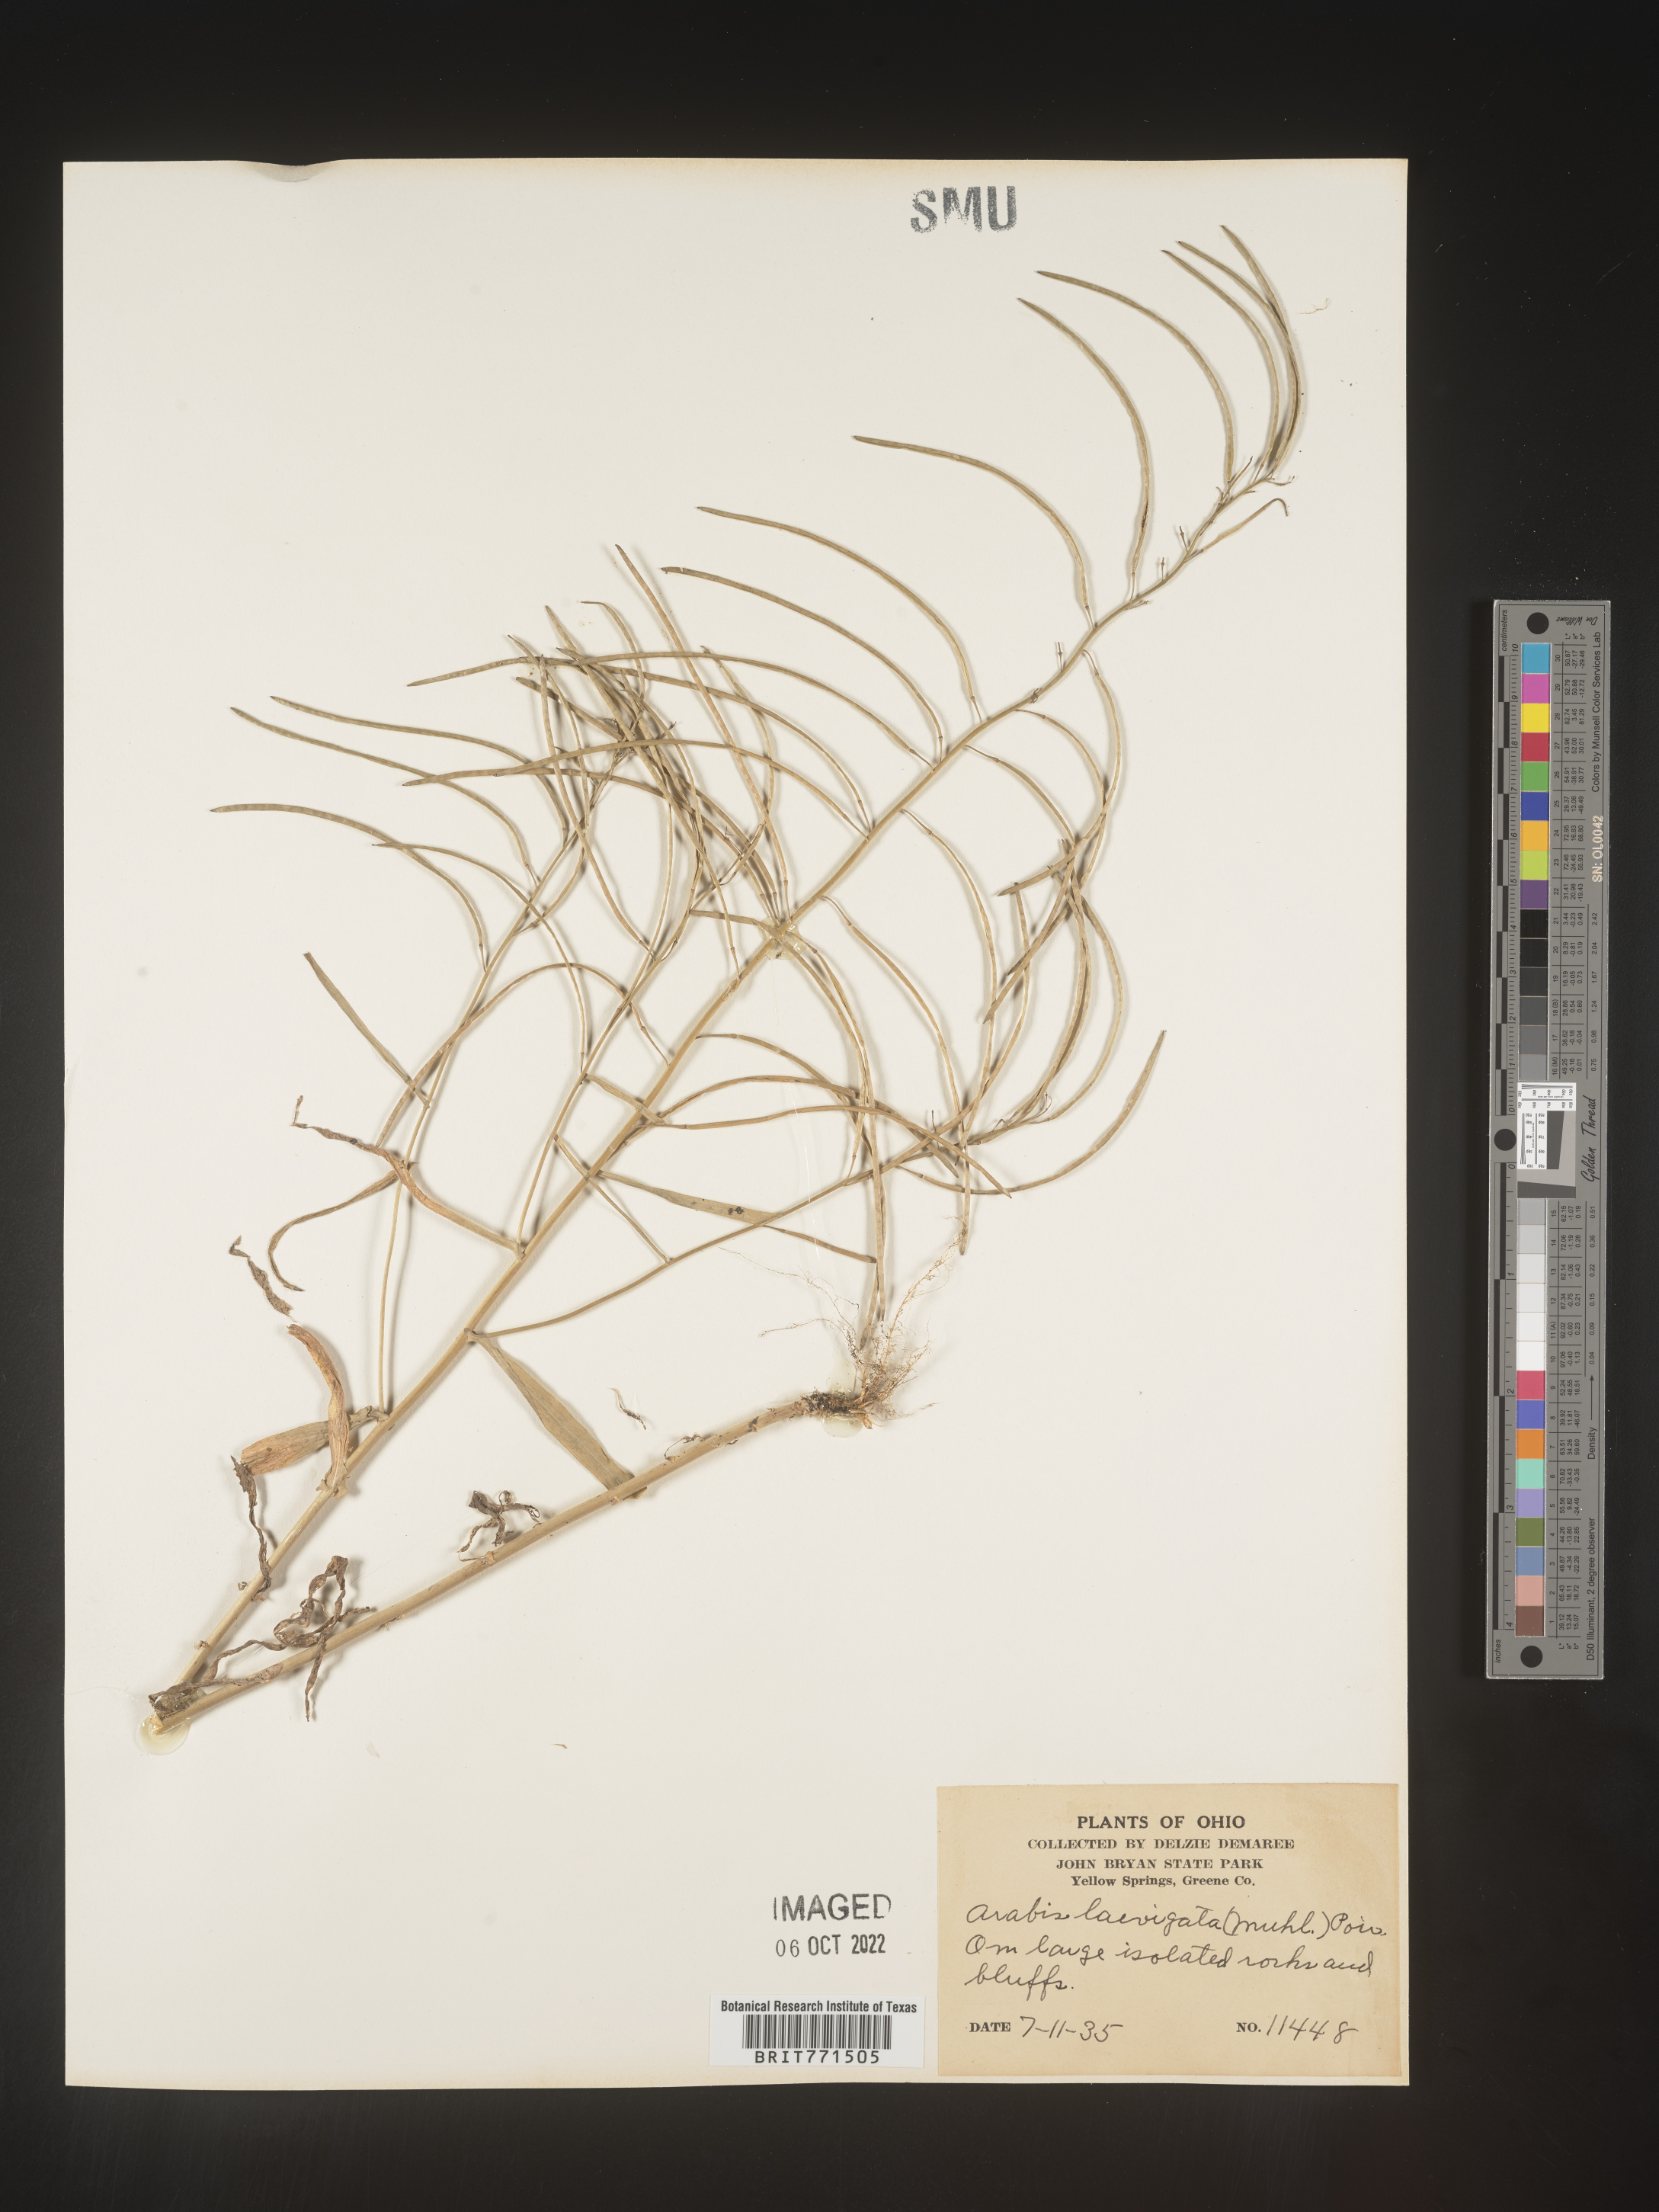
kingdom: Plantae
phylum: Tracheophyta
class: Magnoliopsida
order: Brassicales
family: Brassicaceae
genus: Arabis
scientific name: Arabis laevigata
